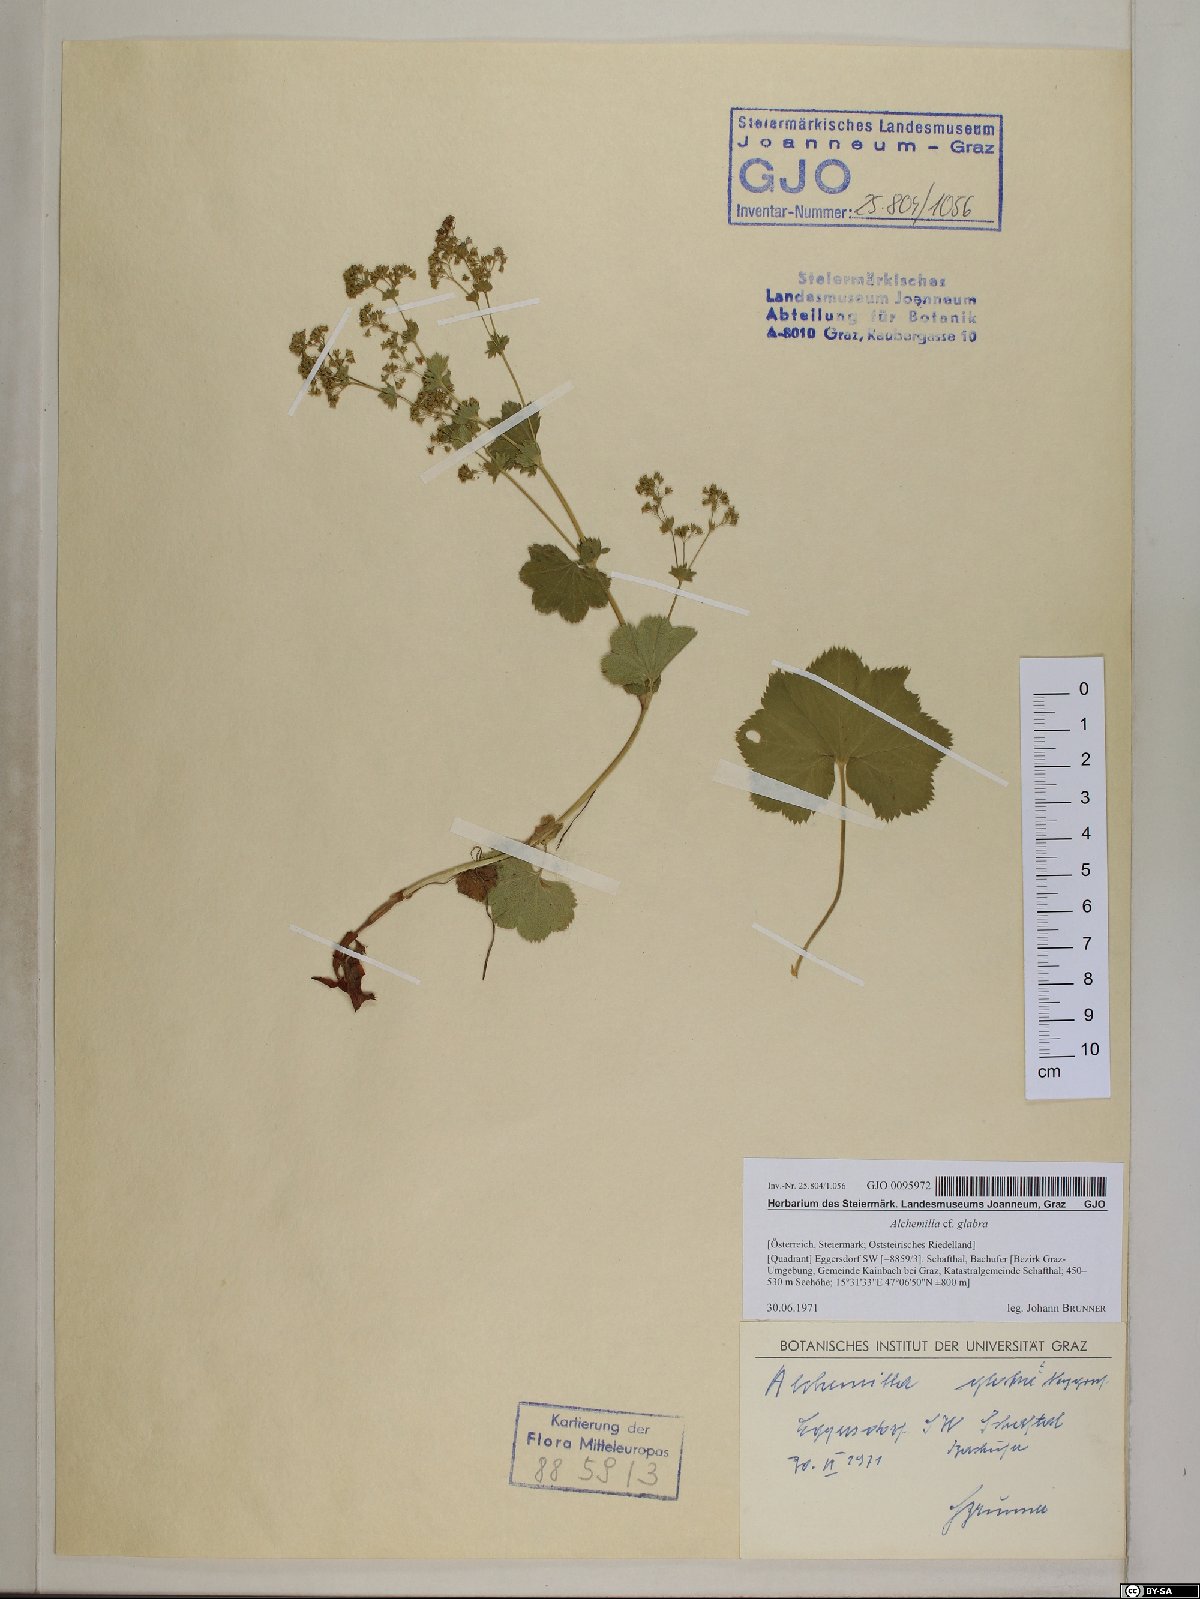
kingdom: Plantae
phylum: Tracheophyta
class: Magnoliopsida
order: Rosales
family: Rosaceae
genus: Alchemilla
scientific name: Alchemilla glabra
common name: Smooth lady's-mantle
